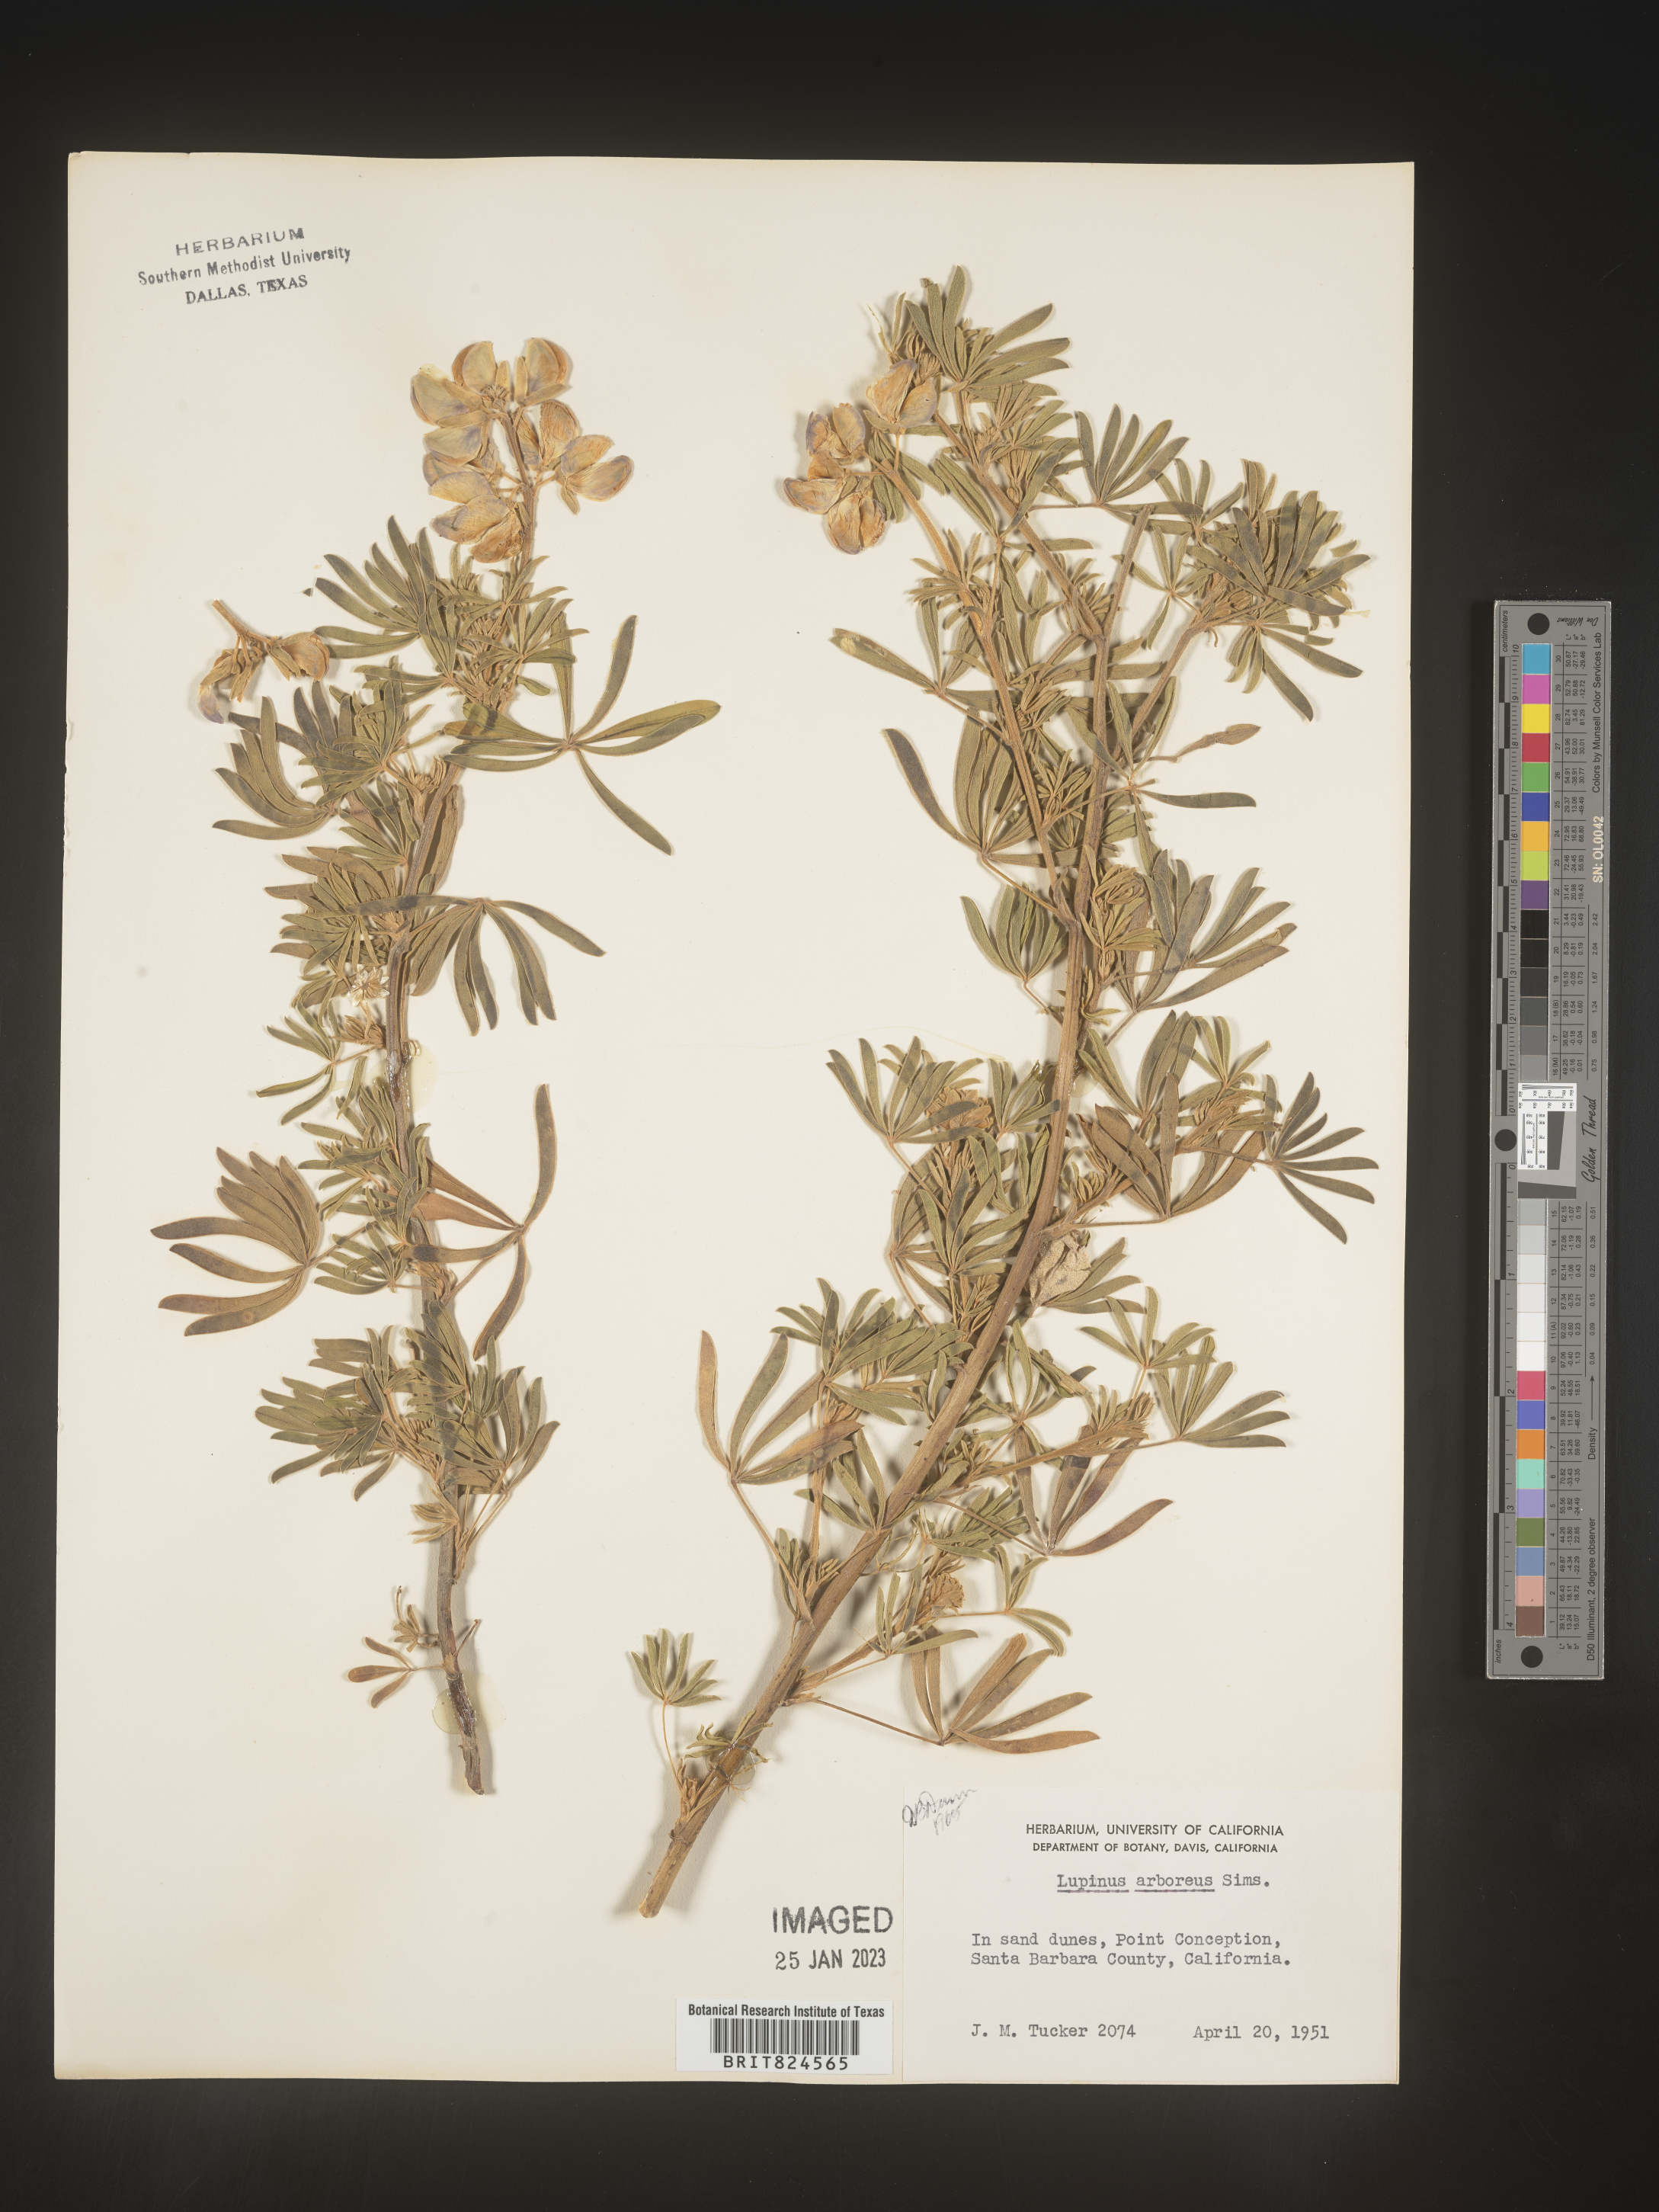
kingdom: Plantae
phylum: Tracheophyta
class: Magnoliopsida
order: Fabales
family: Fabaceae
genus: Lupinus
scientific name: Lupinus arboreus
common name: Yellow bush lupine
